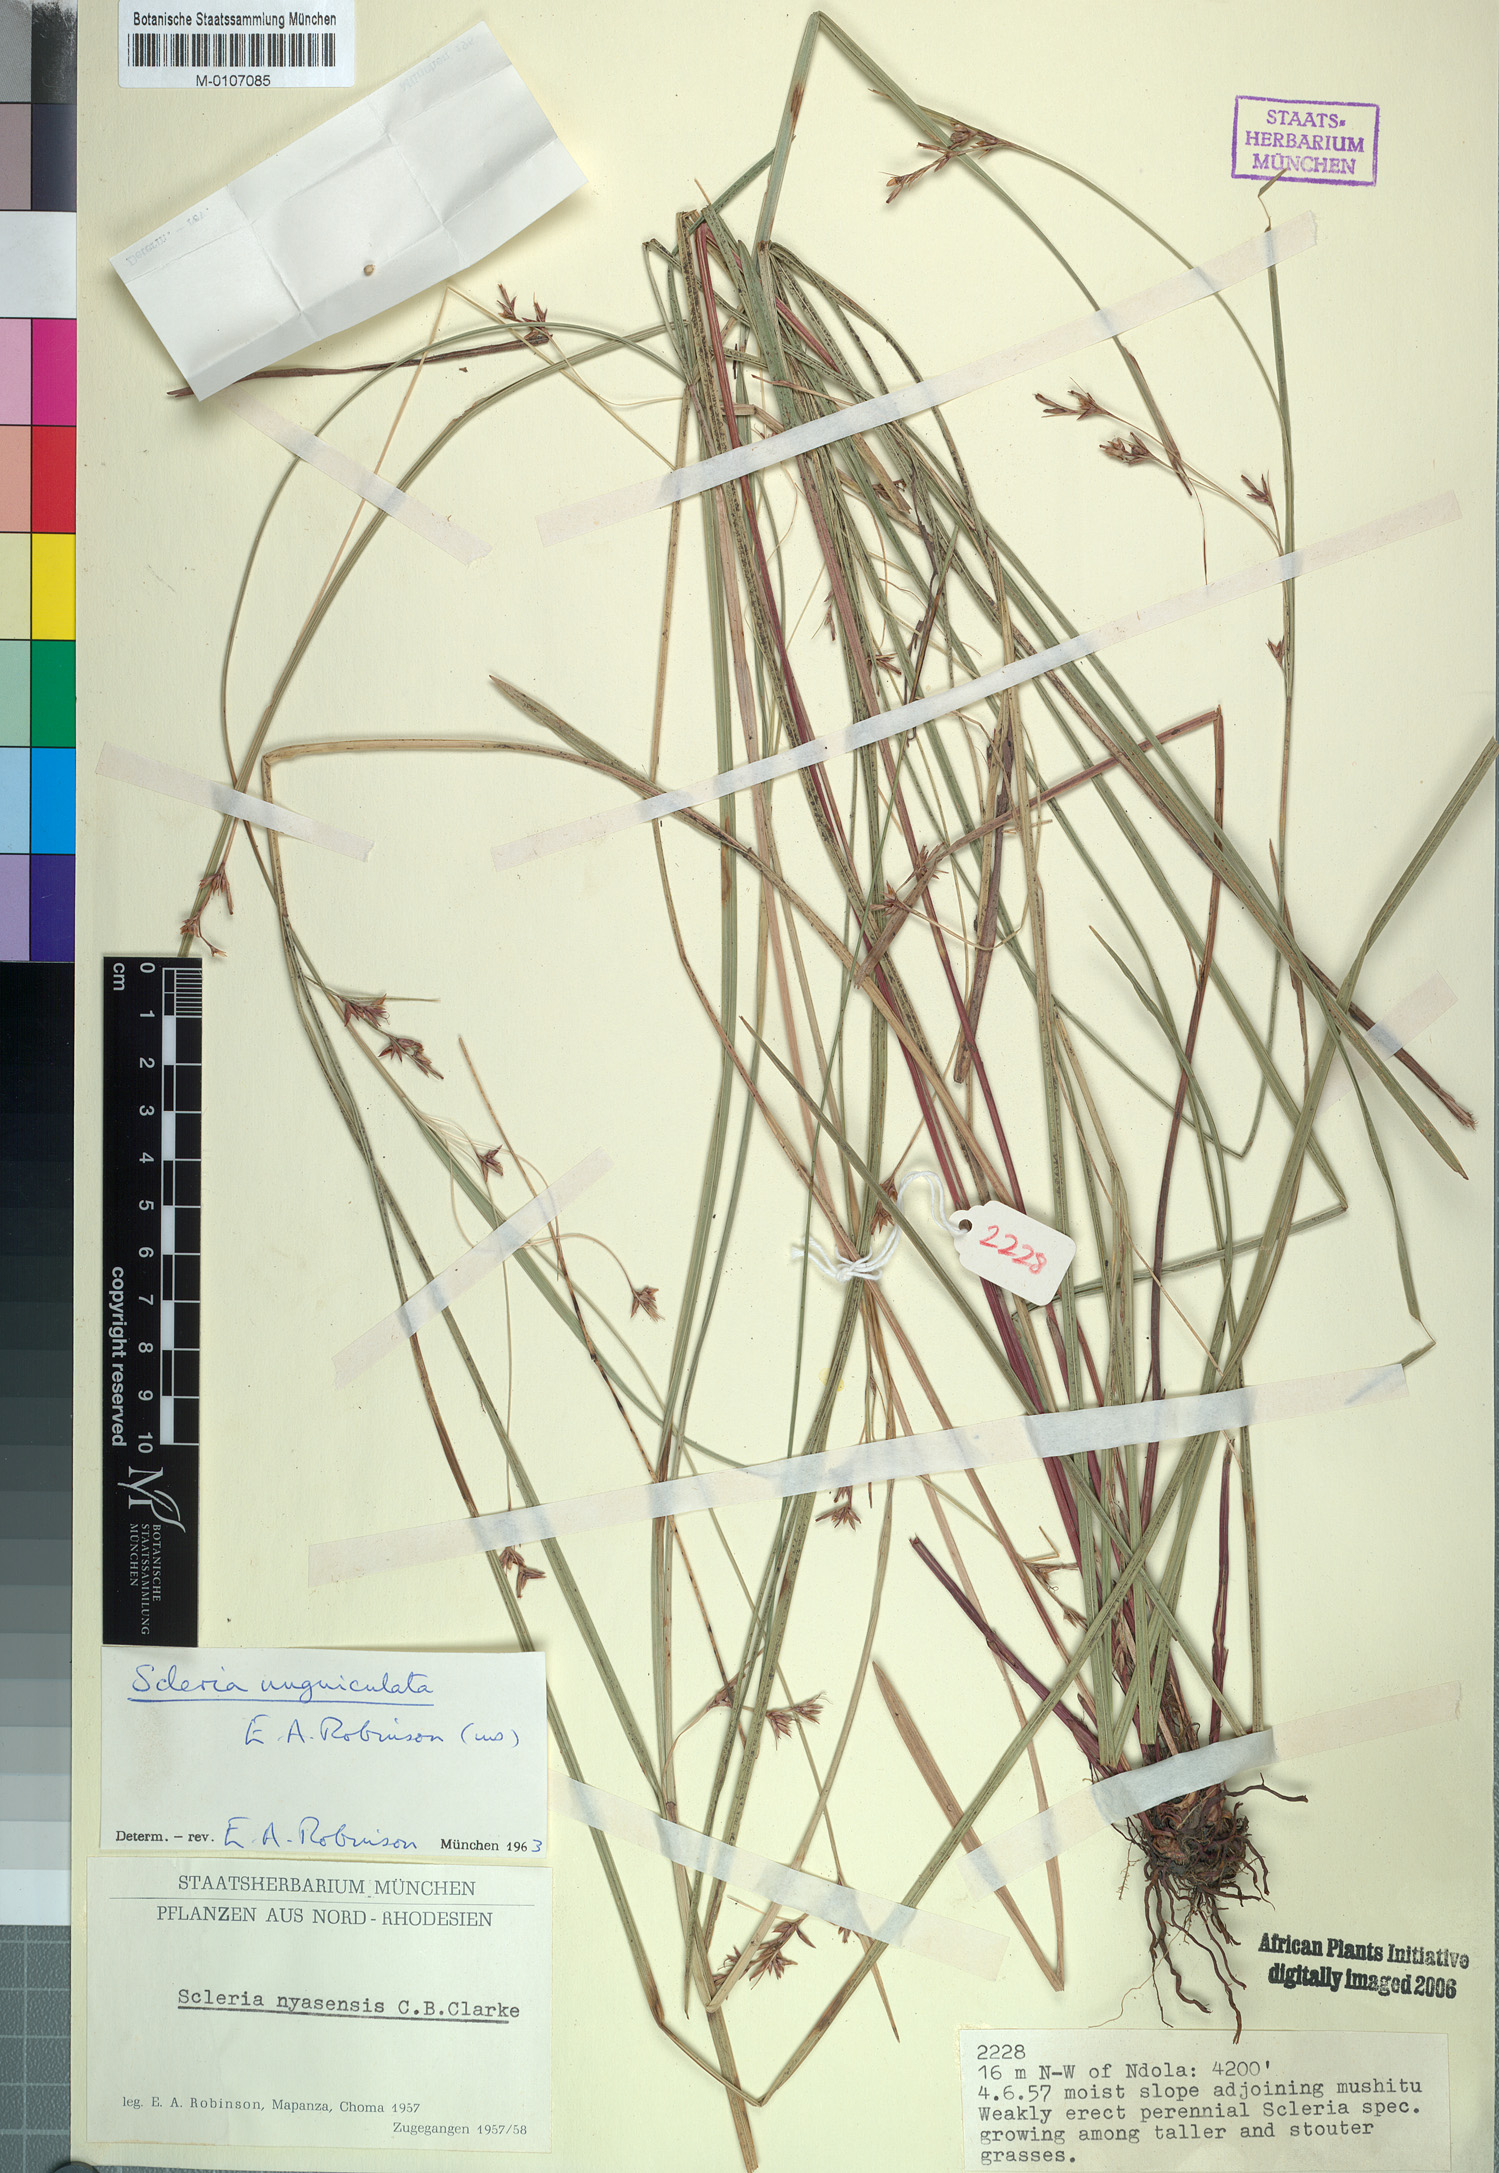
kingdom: Plantae
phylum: Tracheophyta
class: Liliopsida
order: Poales
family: Cyperaceae
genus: Scleria
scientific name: Scleria unguiculata
